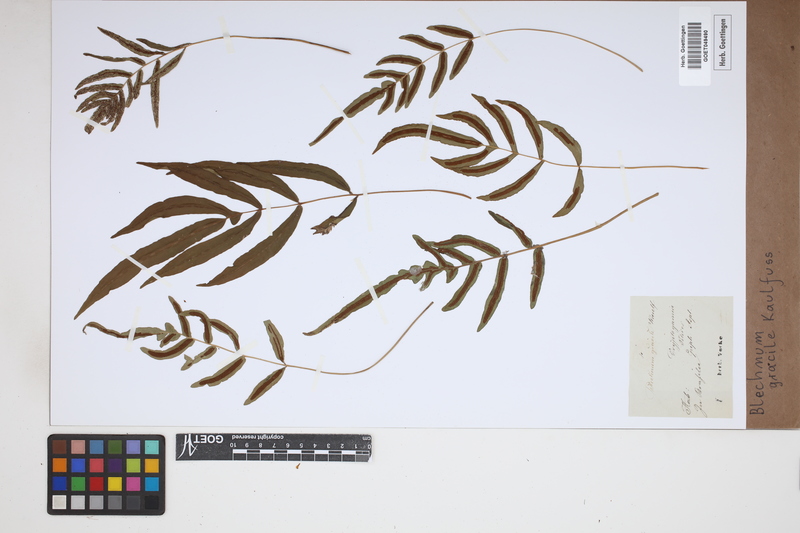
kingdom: Plantae
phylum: Tracheophyta
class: Polypodiopsida
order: Polypodiales
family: Blechnaceae
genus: Blechnum
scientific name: Blechnum gracile
